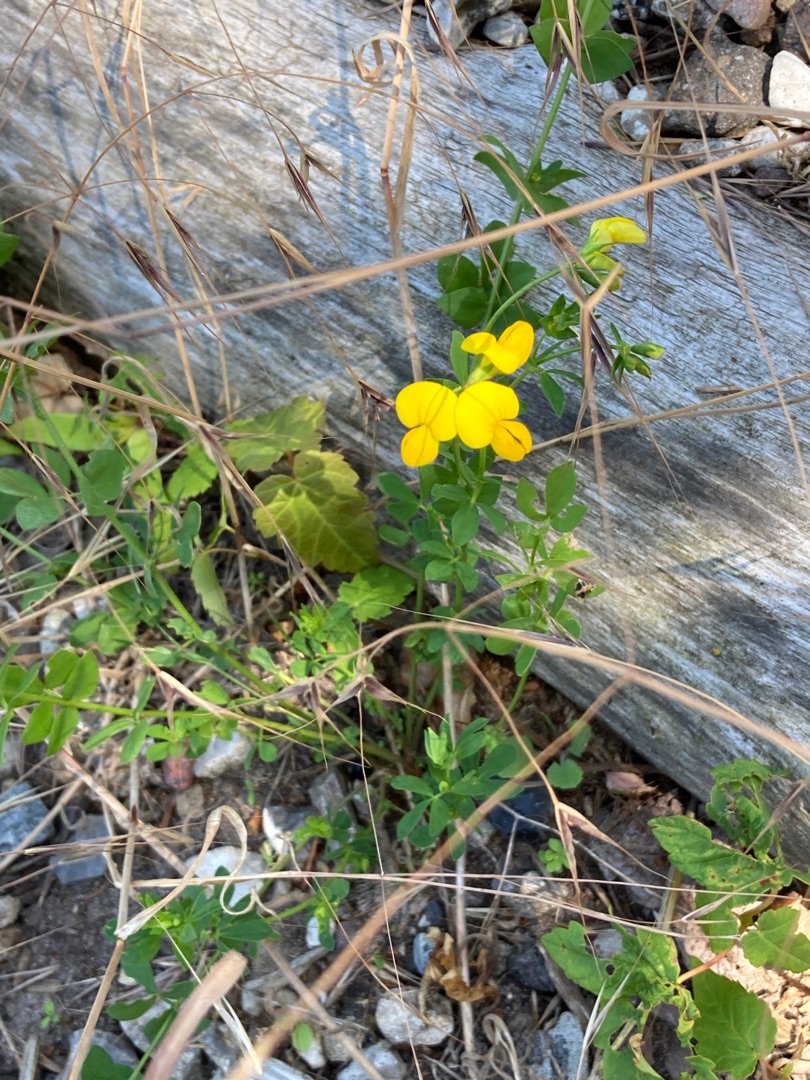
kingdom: Plantae
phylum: Tracheophyta
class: Magnoliopsida
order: Fabales
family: Fabaceae
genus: Lotus
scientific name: Lotus corniculatus
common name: Almindelig kællingetand
